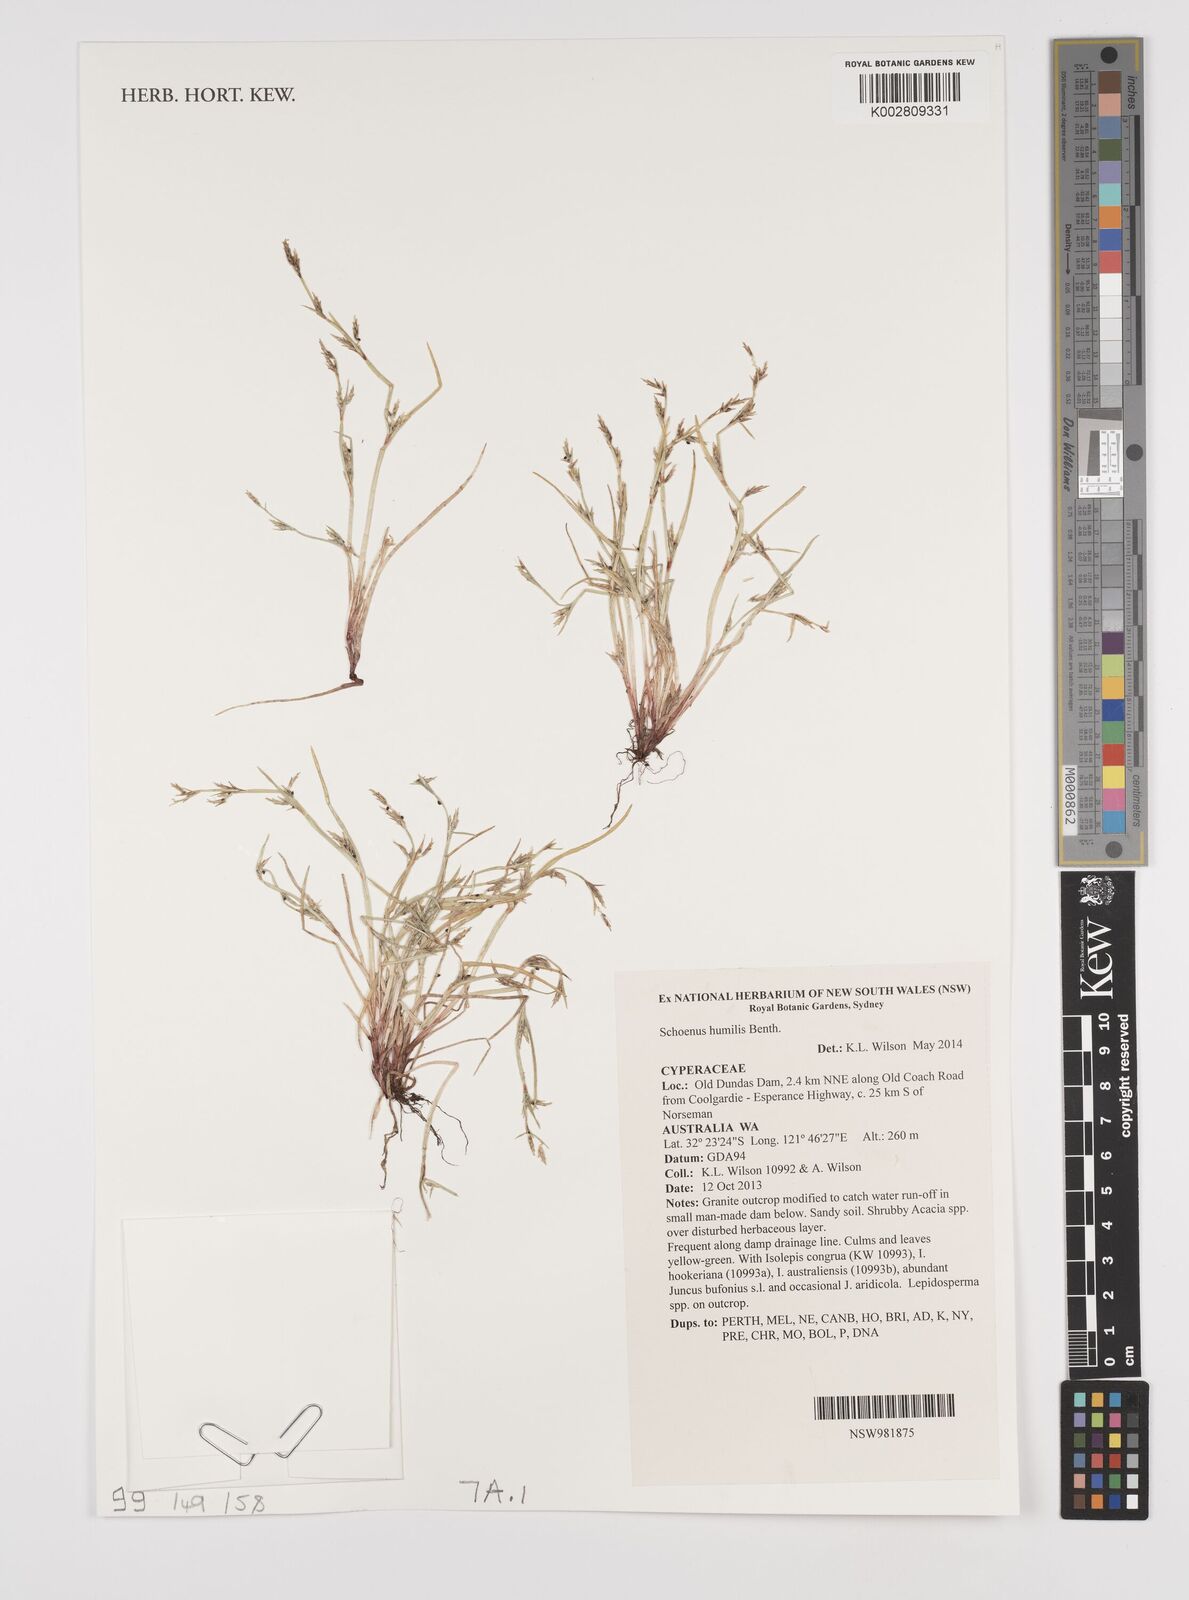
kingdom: Plantae
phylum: Tracheophyta
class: Liliopsida
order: Poales
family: Cyperaceae
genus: Schoenus
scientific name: Schoenus humilis
